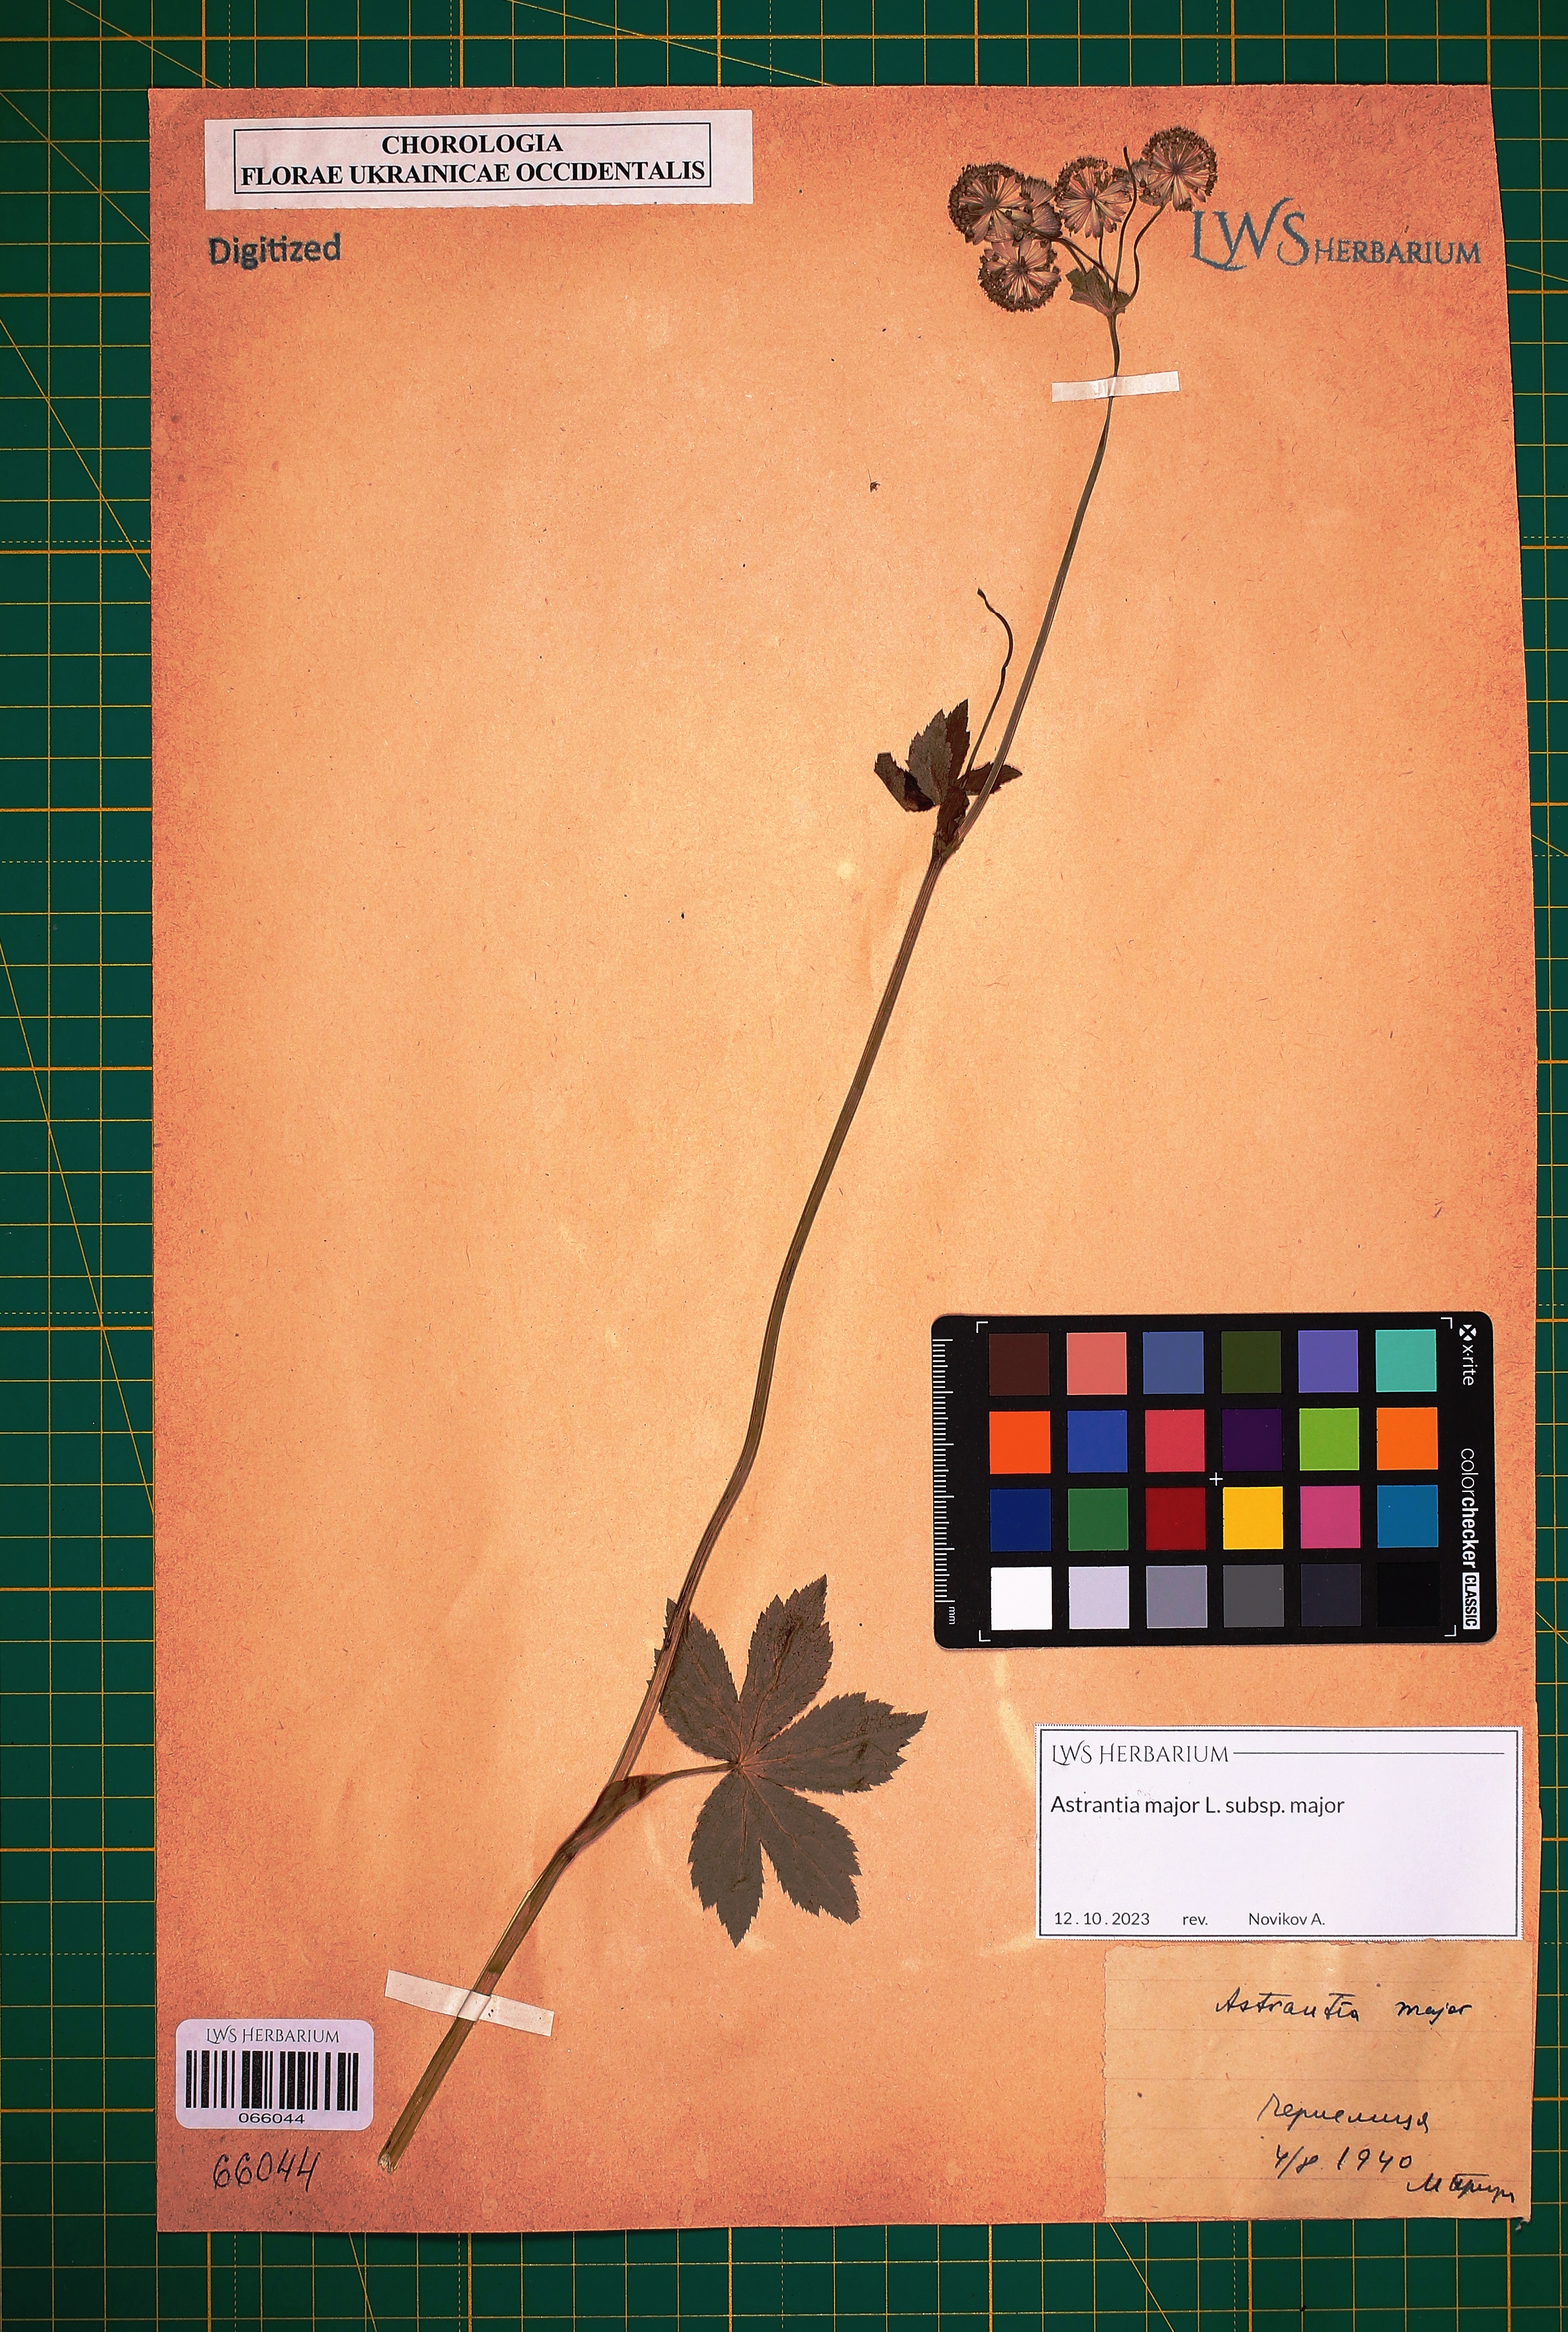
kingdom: Plantae
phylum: Tracheophyta
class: Magnoliopsida
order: Apiales
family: Apiaceae
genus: Astrantia
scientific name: Astrantia major
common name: Greater masterwort
